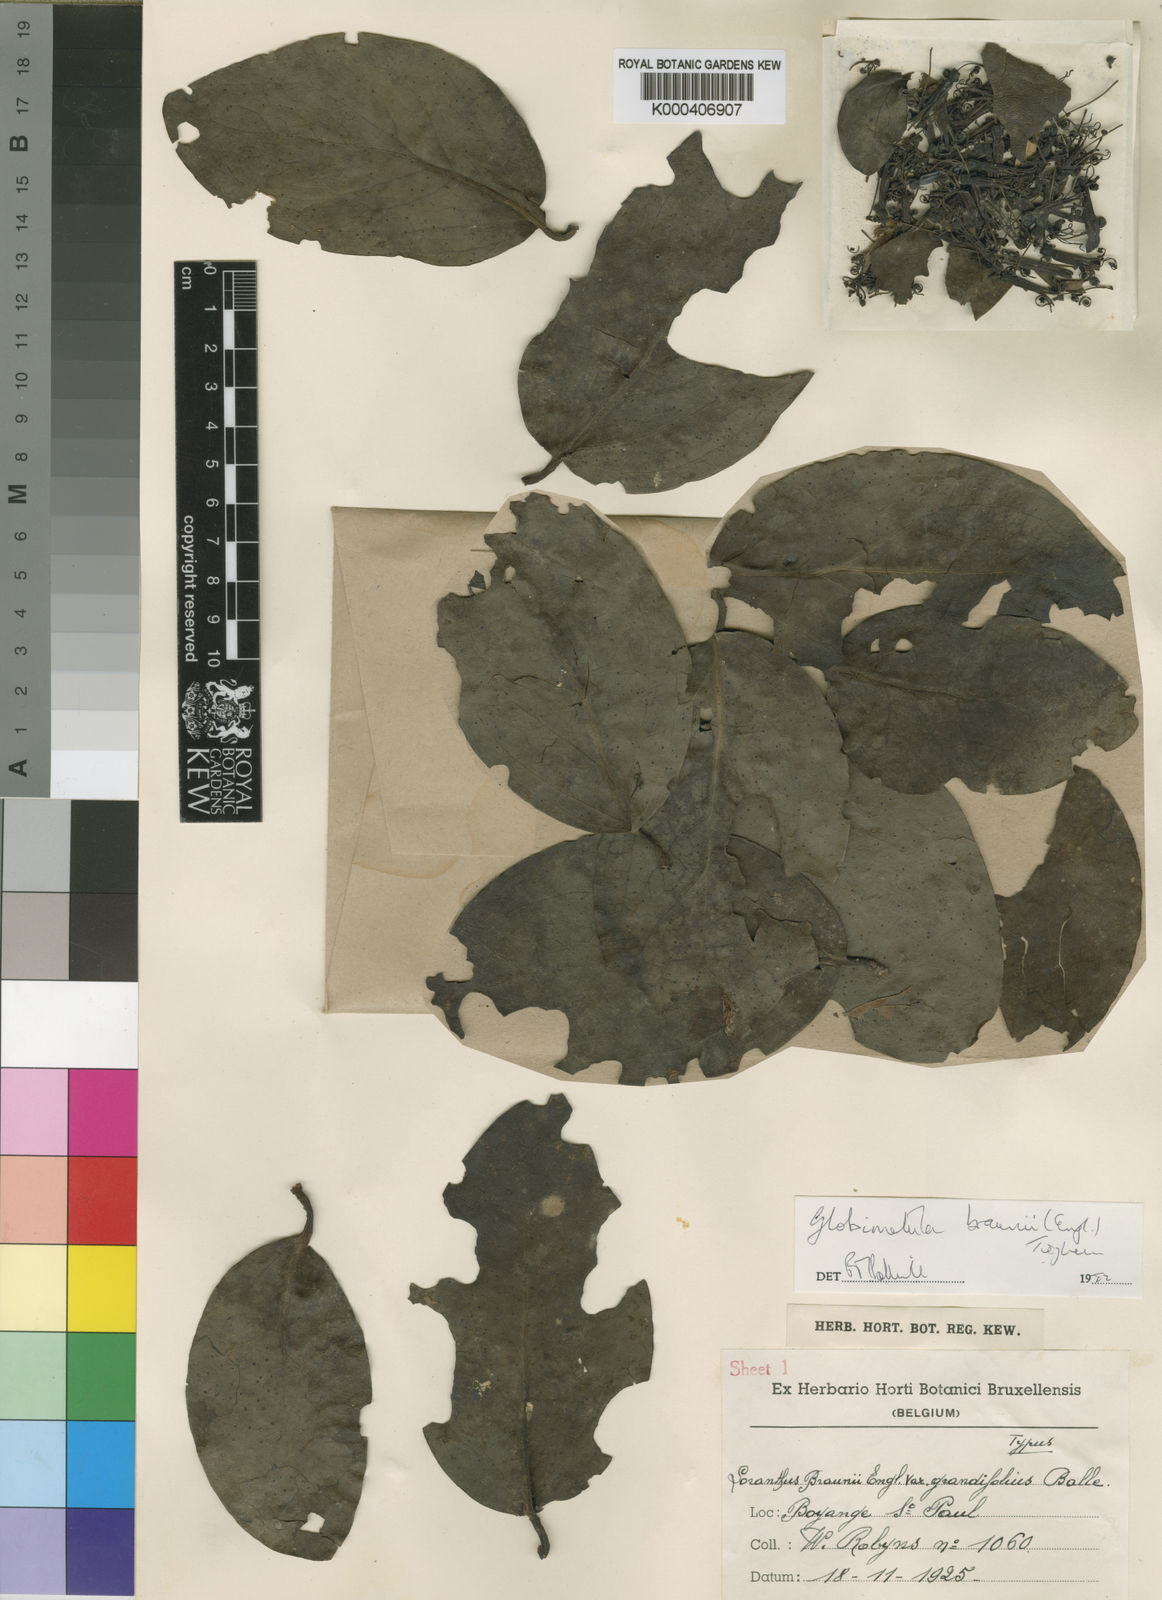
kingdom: Plantae
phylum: Tracheophyta
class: Magnoliopsida
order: Santalales
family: Loranthaceae
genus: Globimetula
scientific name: Globimetula braunii
